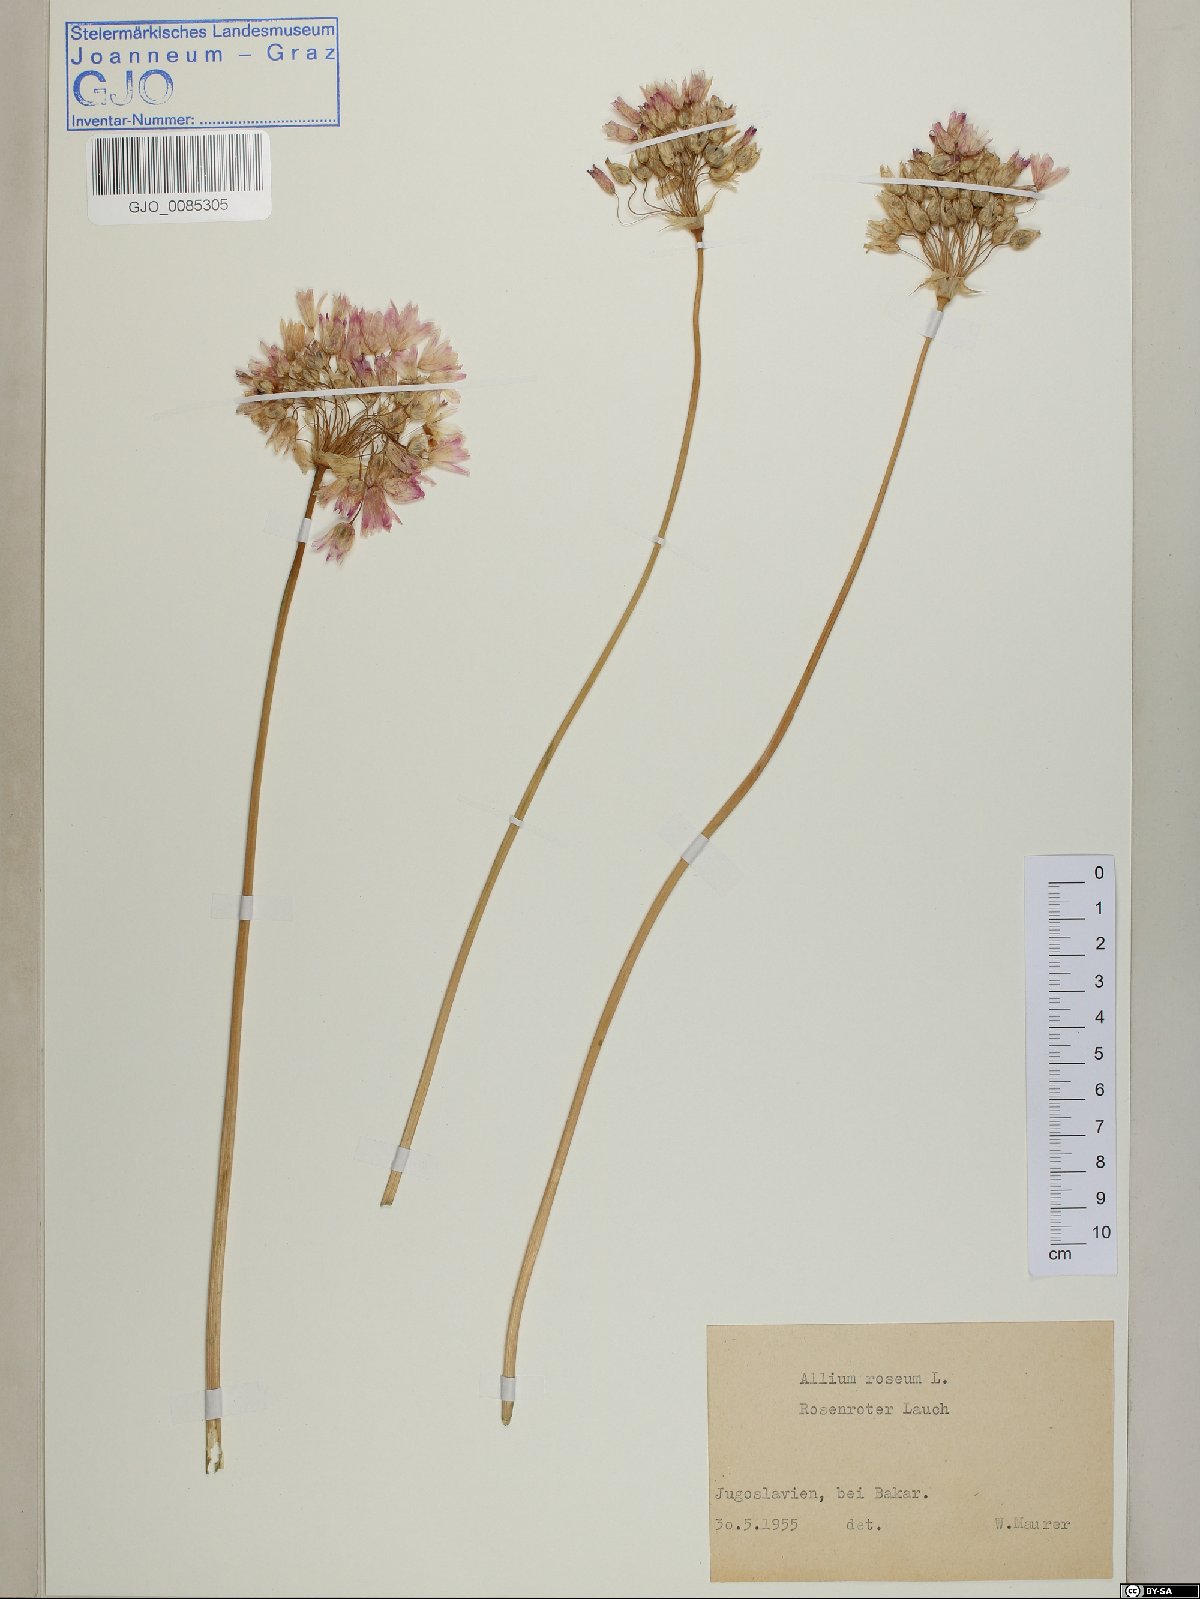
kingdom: Plantae
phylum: Tracheophyta
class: Liliopsida
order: Asparagales
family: Amaryllidaceae
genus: Allium
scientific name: Allium roseum
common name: Rosy garlic
